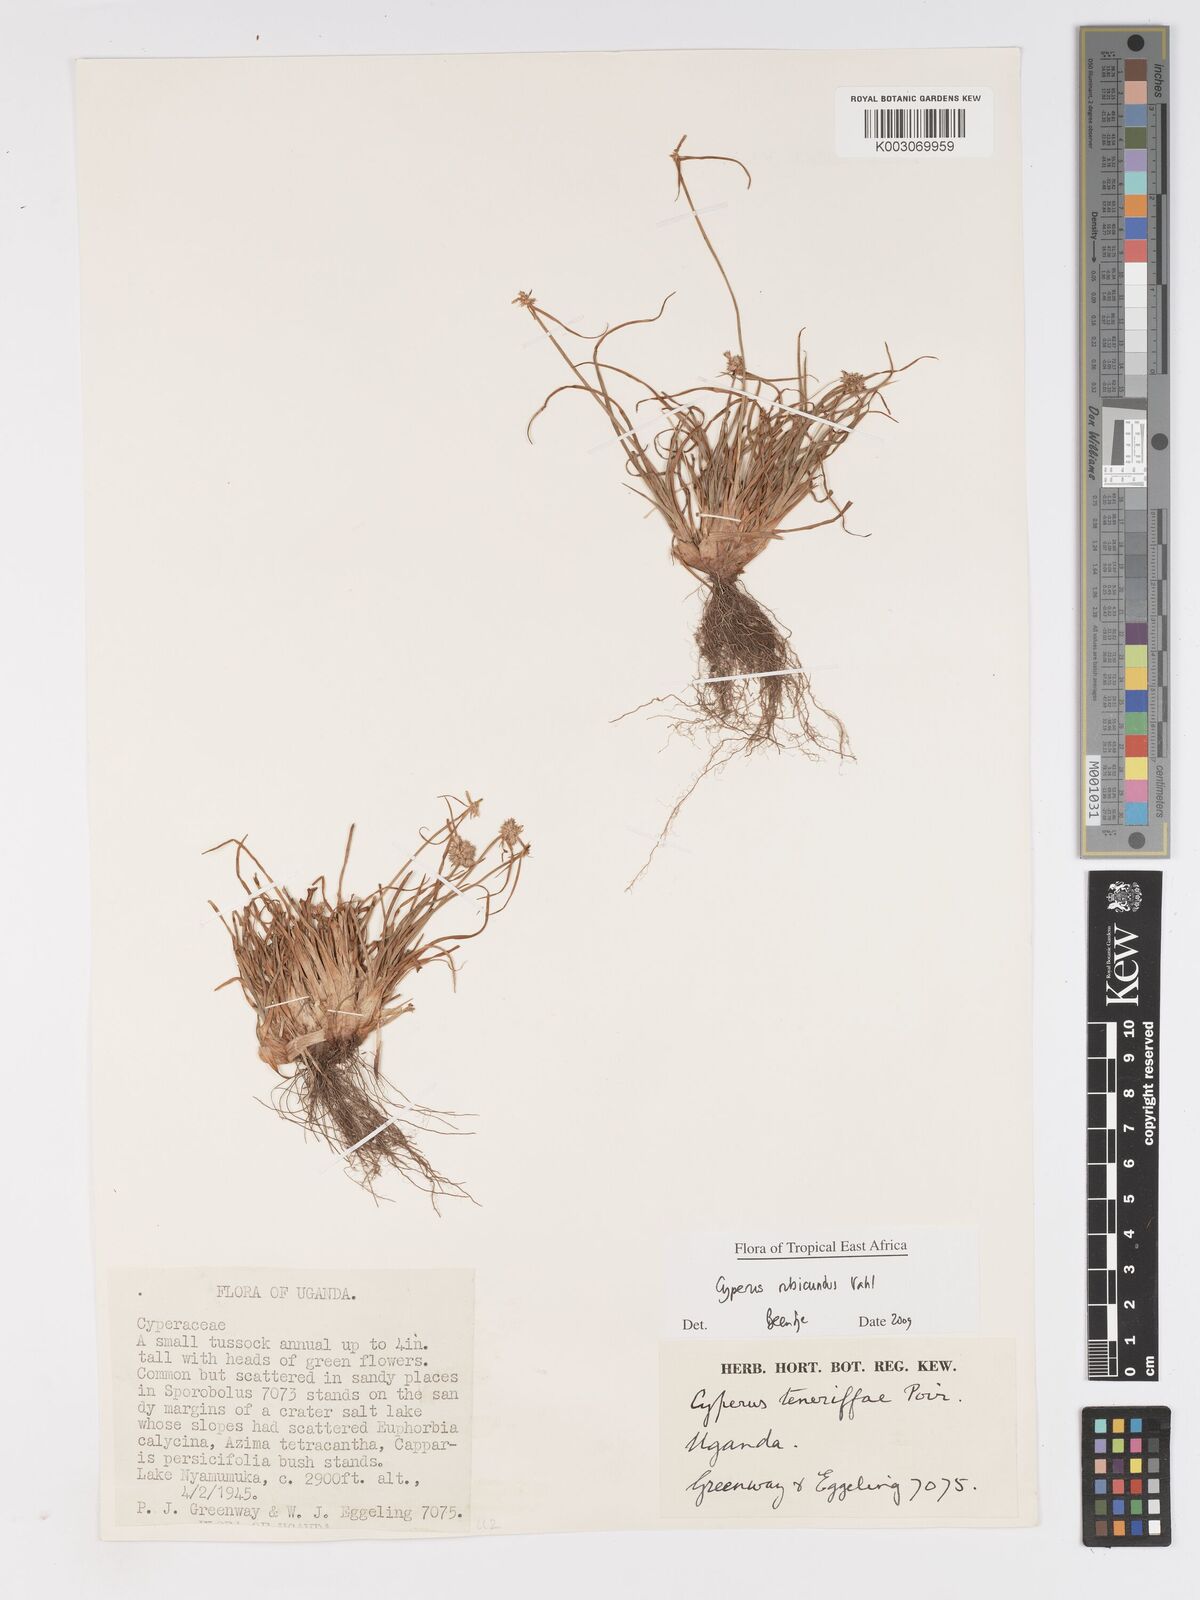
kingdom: Plantae
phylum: Tracheophyta
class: Liliopsida
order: Poales
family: Cyperaceae
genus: Cyperus
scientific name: Cyperus rubicundus
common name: Coco-grass
